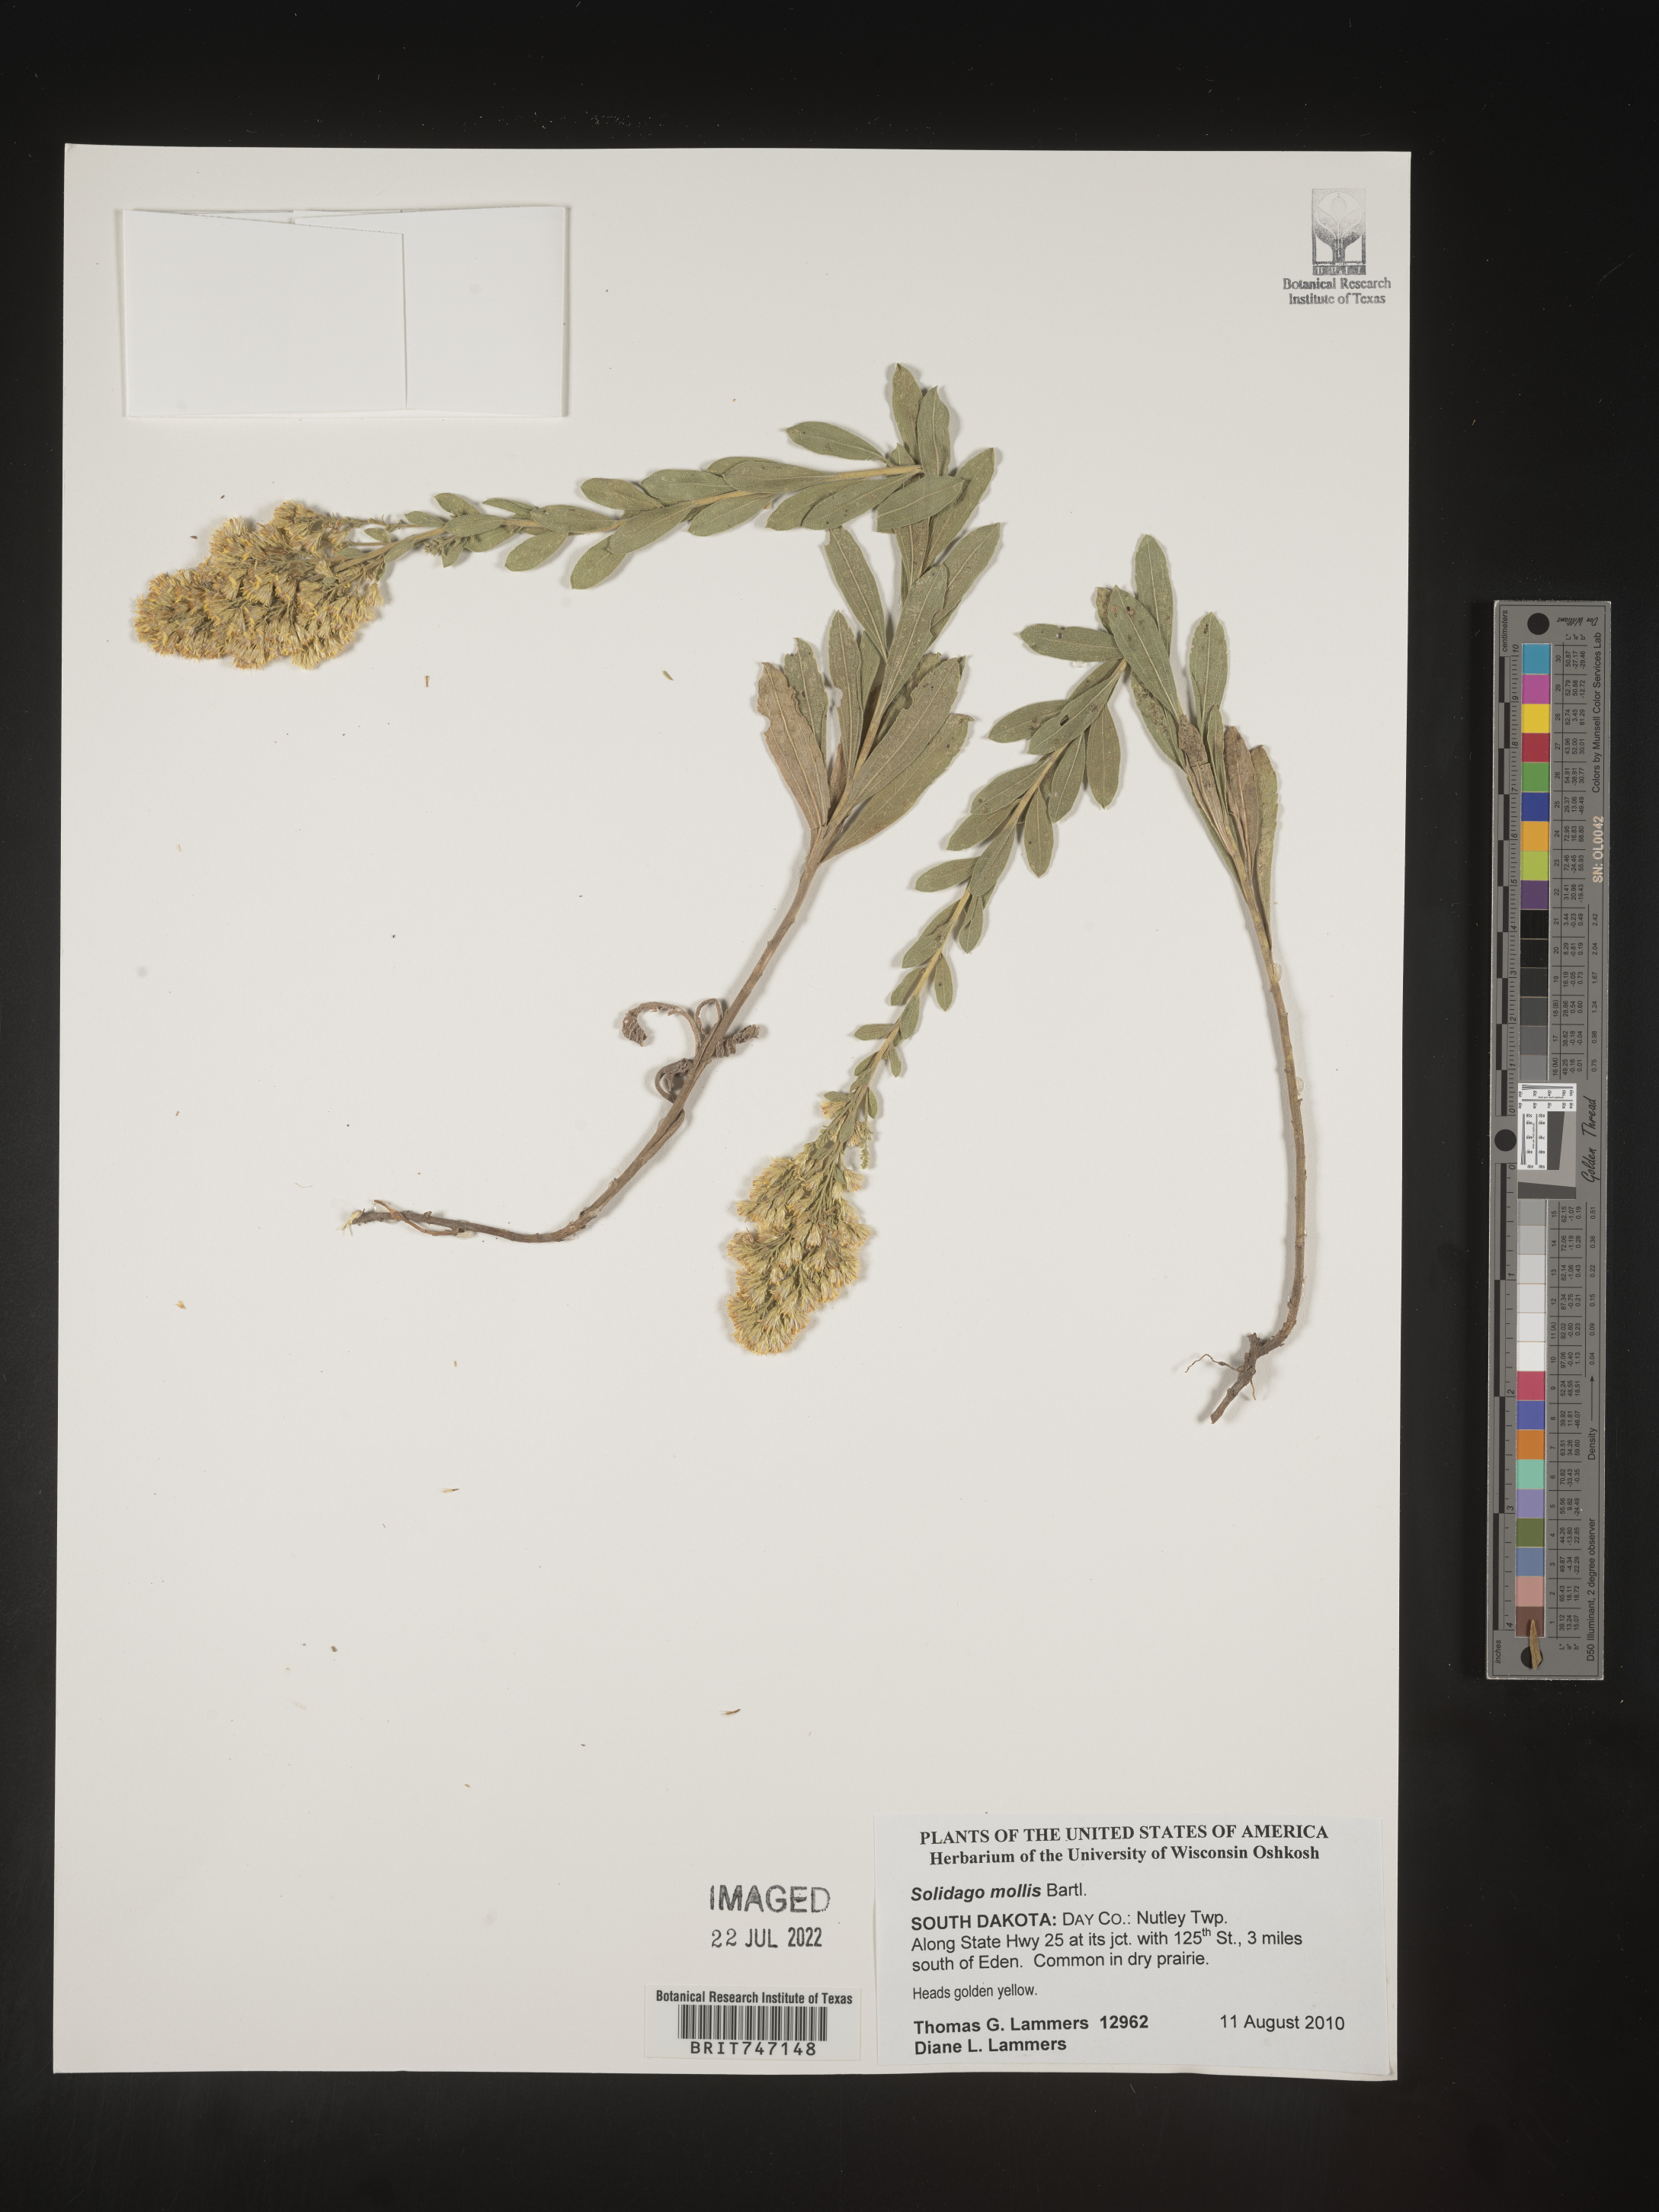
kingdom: Plantae
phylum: Tracheophyta
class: Magnoliopsida
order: Asterales
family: Asteraceae
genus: Solidago
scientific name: Solidago mollis
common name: Ashly goldenrod
